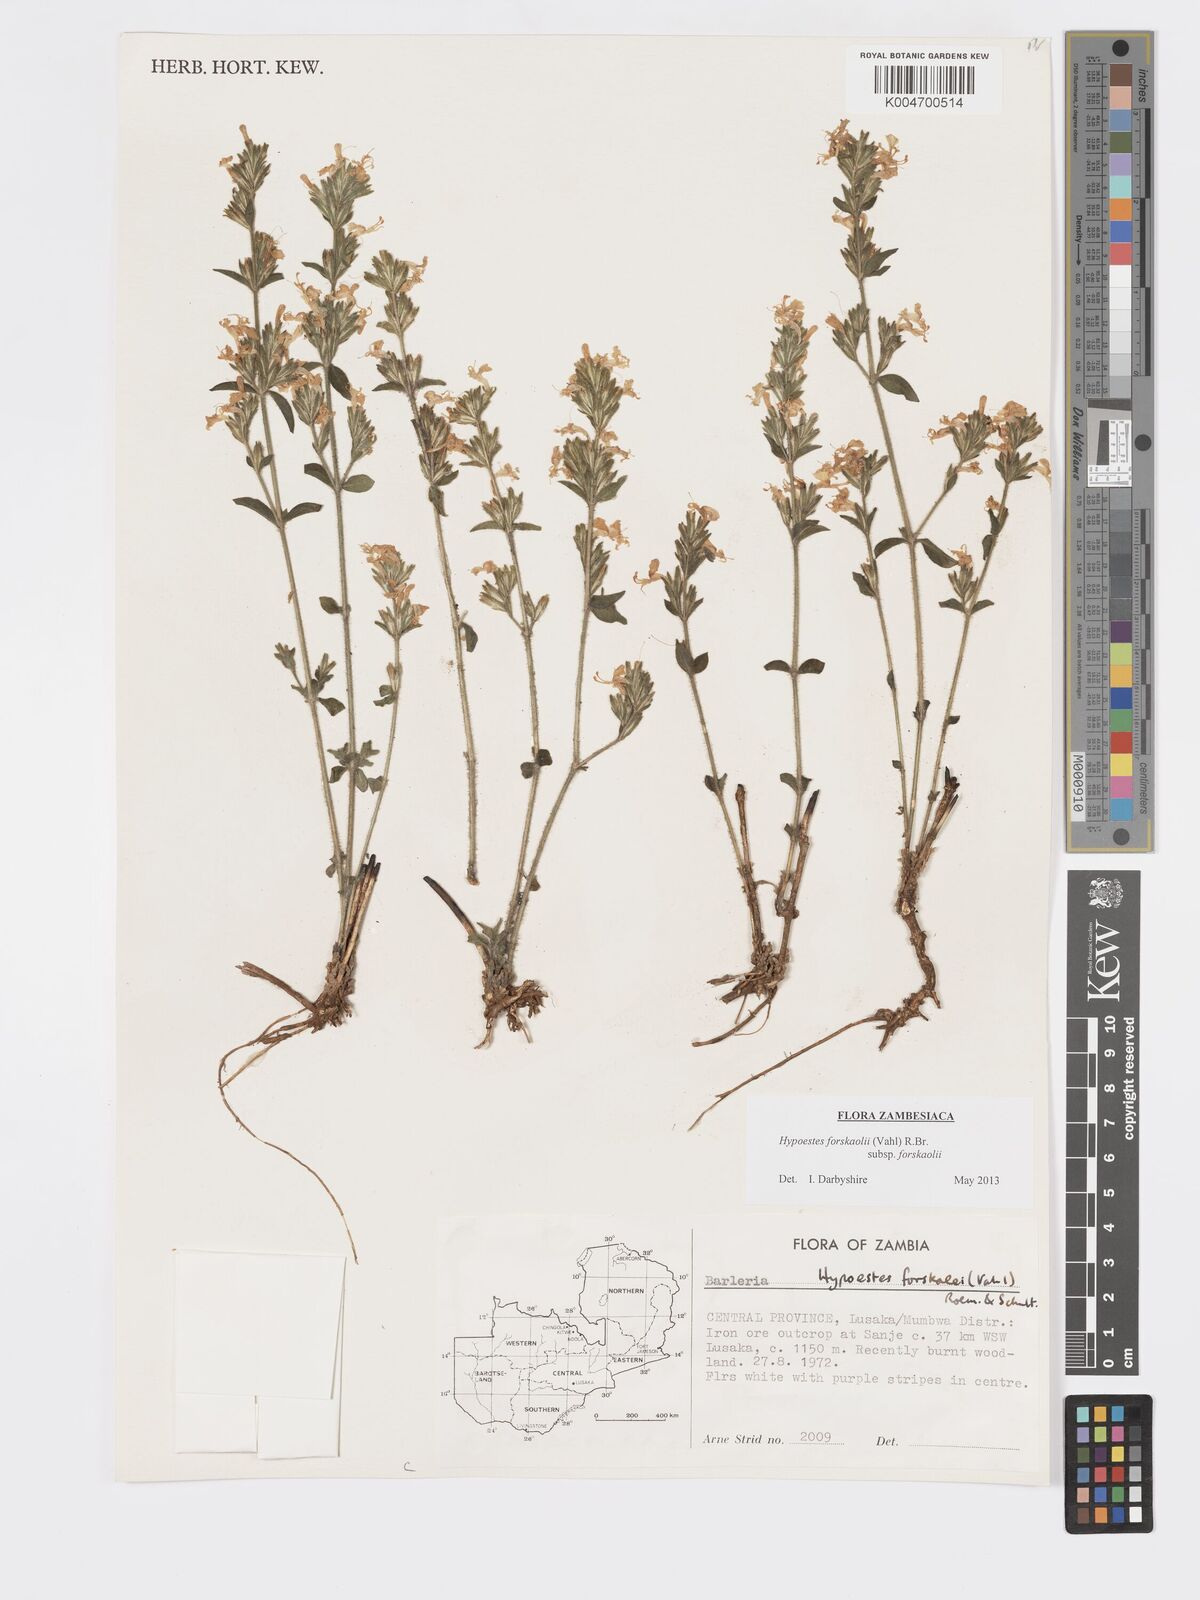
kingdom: Plantae
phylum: Tracheophyta
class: Magnoliopsida
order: Lamiales
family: Acanthaceae
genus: Hypoestes
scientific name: Hypoestes forskaolii
